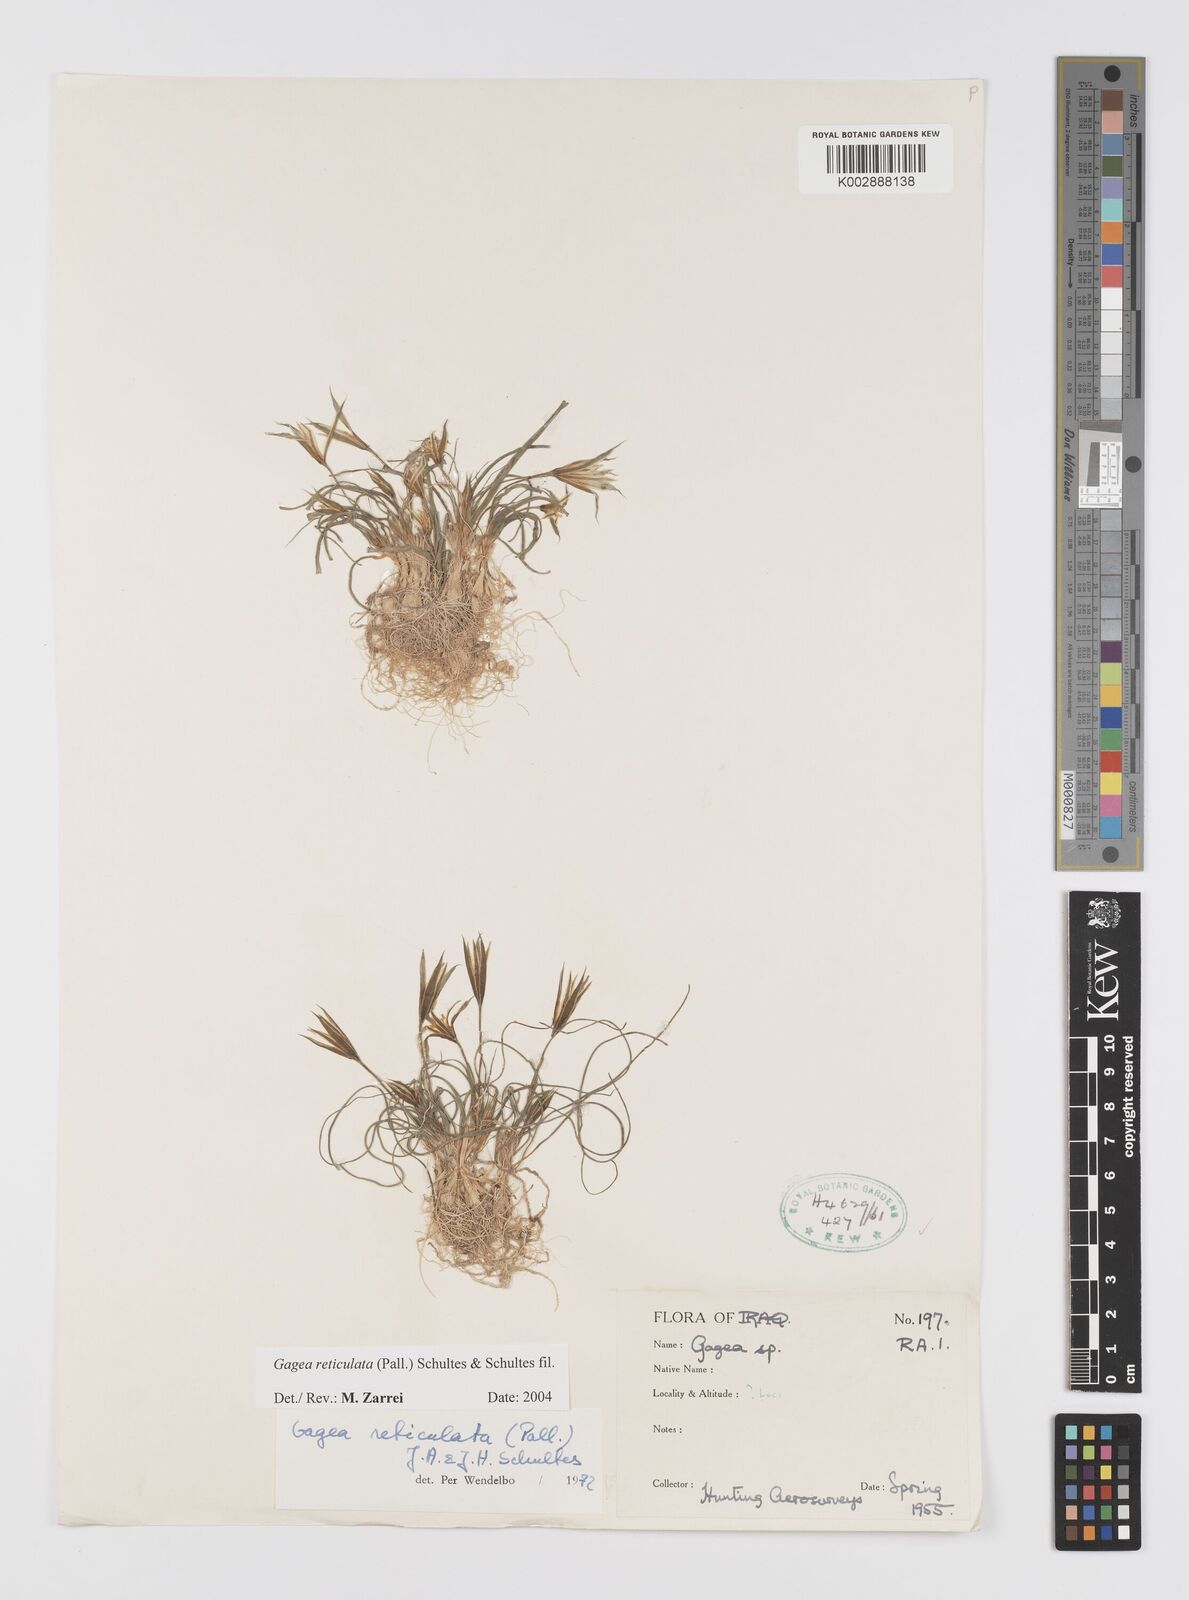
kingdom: Plantae
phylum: Tracheophyta
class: Liliopsida
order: Liliales
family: Liliaceae
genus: Gagea
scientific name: Gagea reticulata
